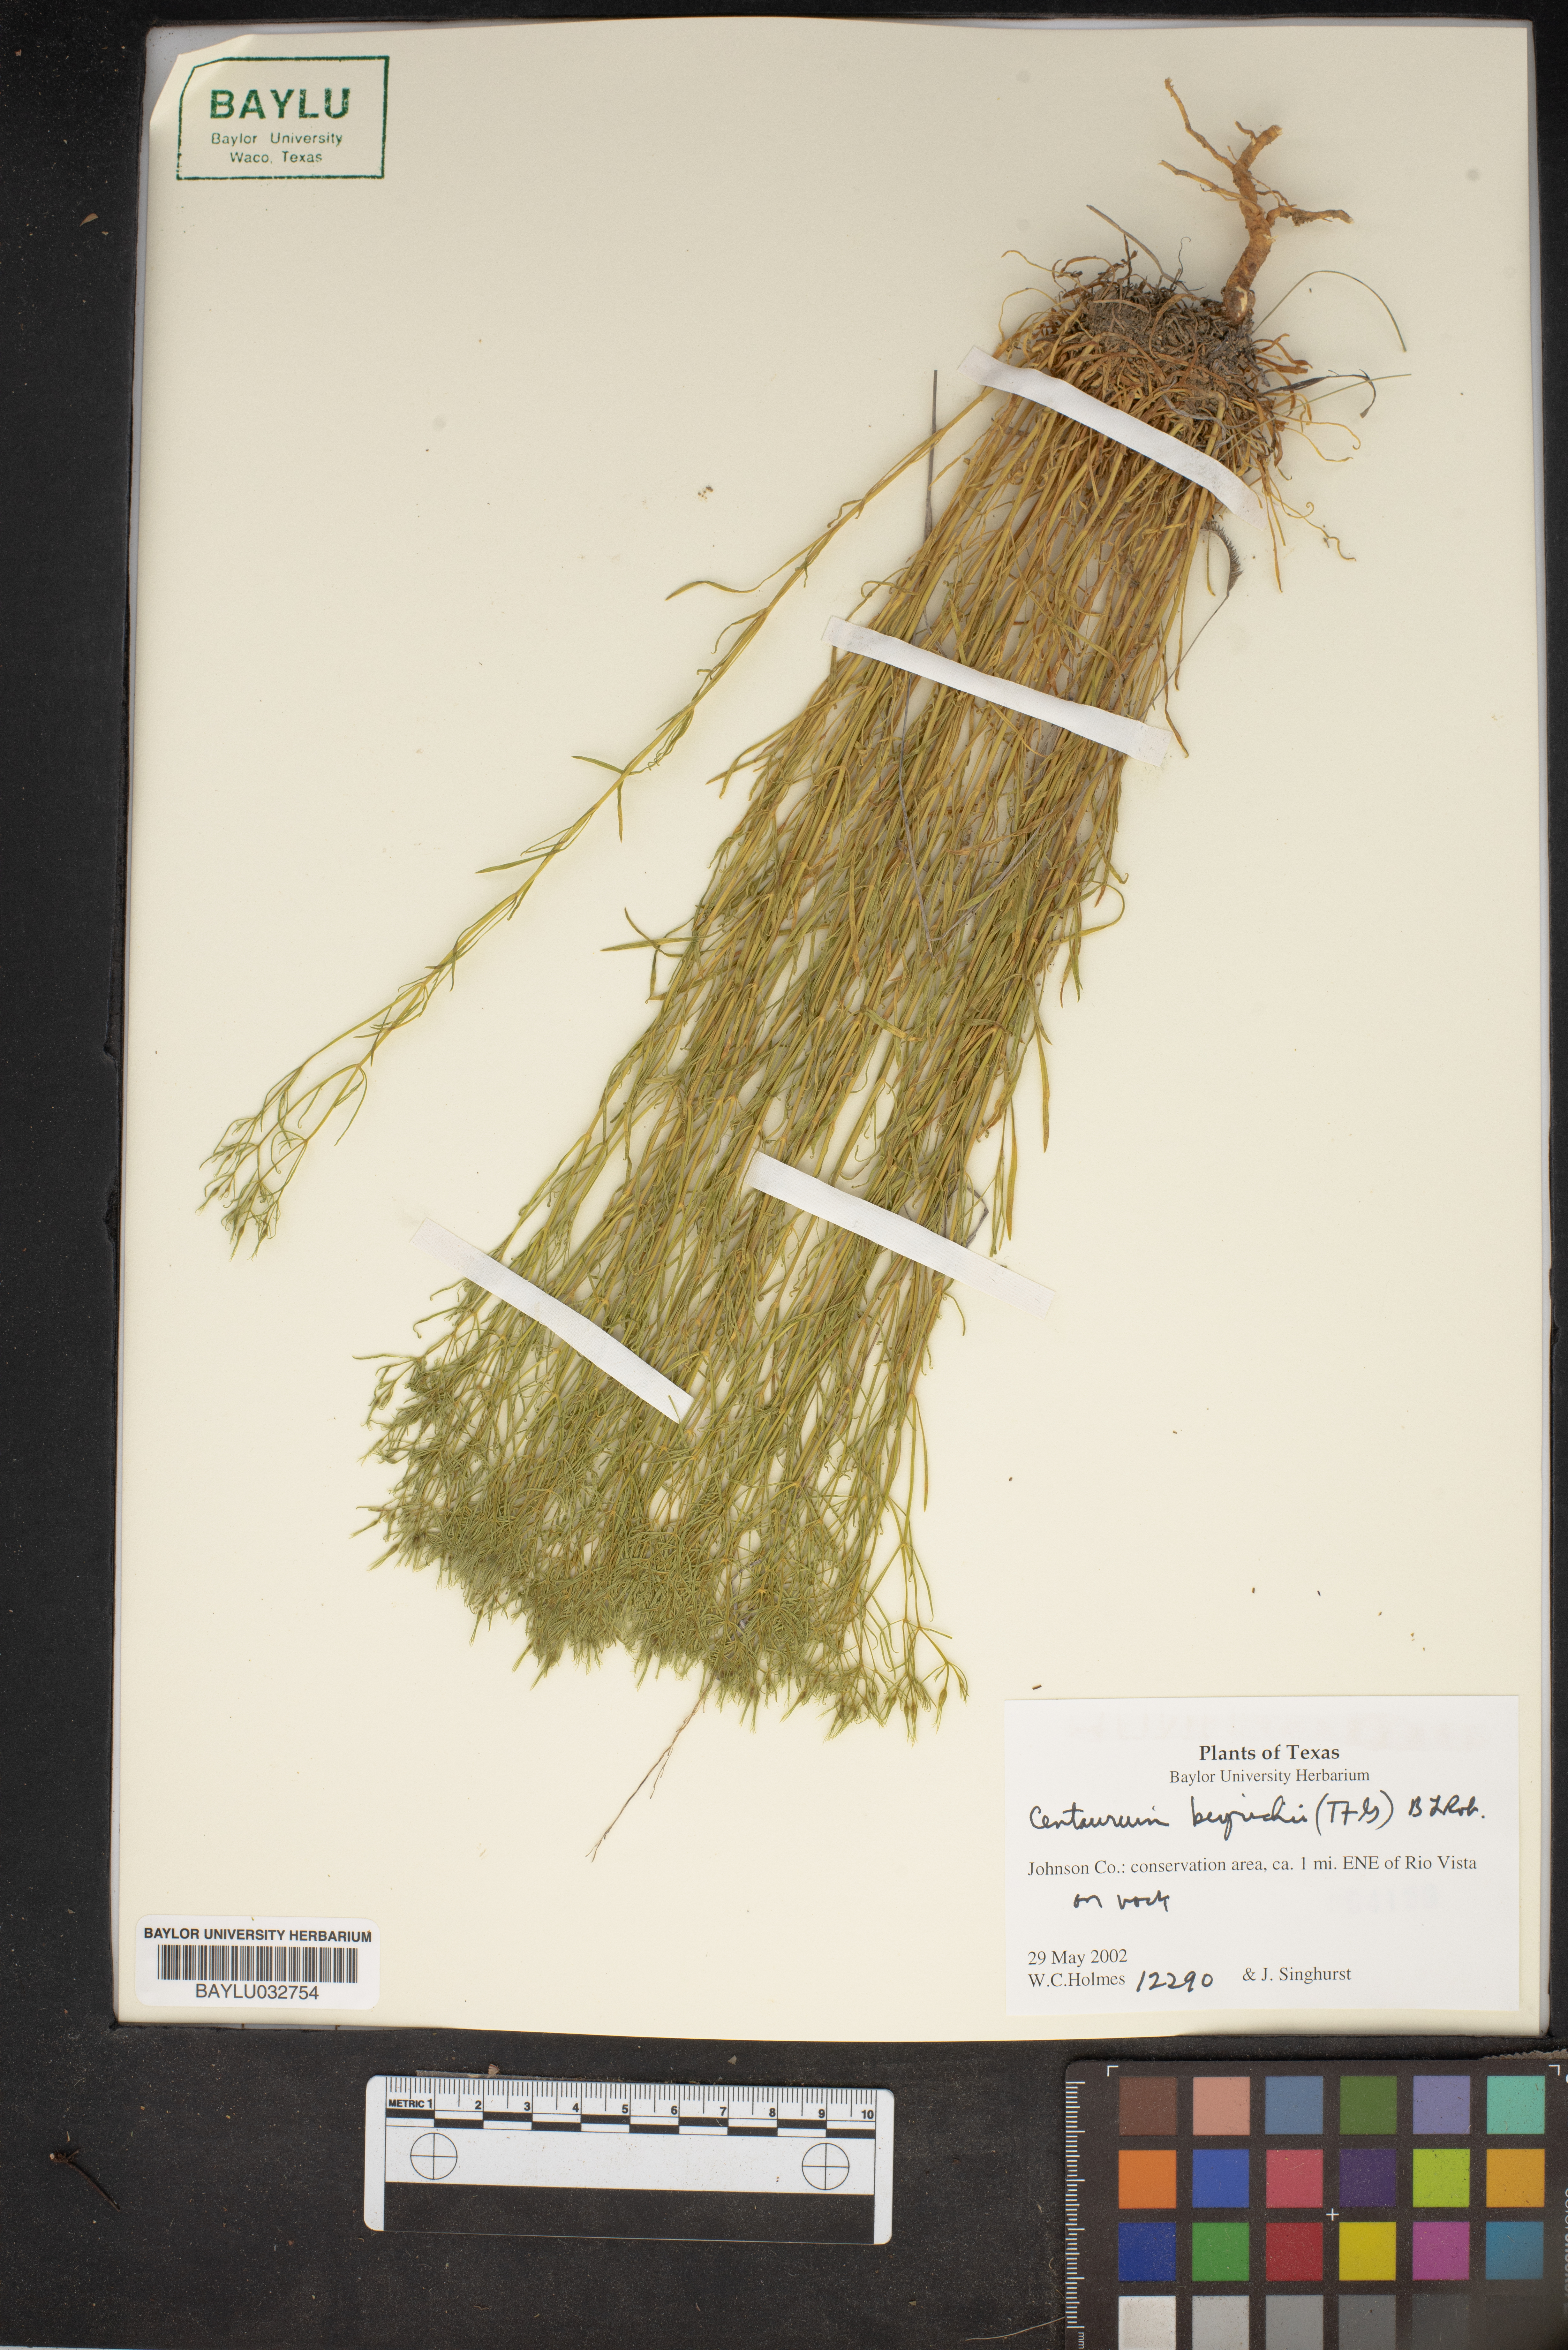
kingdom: Plantae
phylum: Tracheophyta
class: Magnoliopsida
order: Gentianales
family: Gentianaceae
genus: Zeltnera
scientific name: Zeltnera beyrichii
